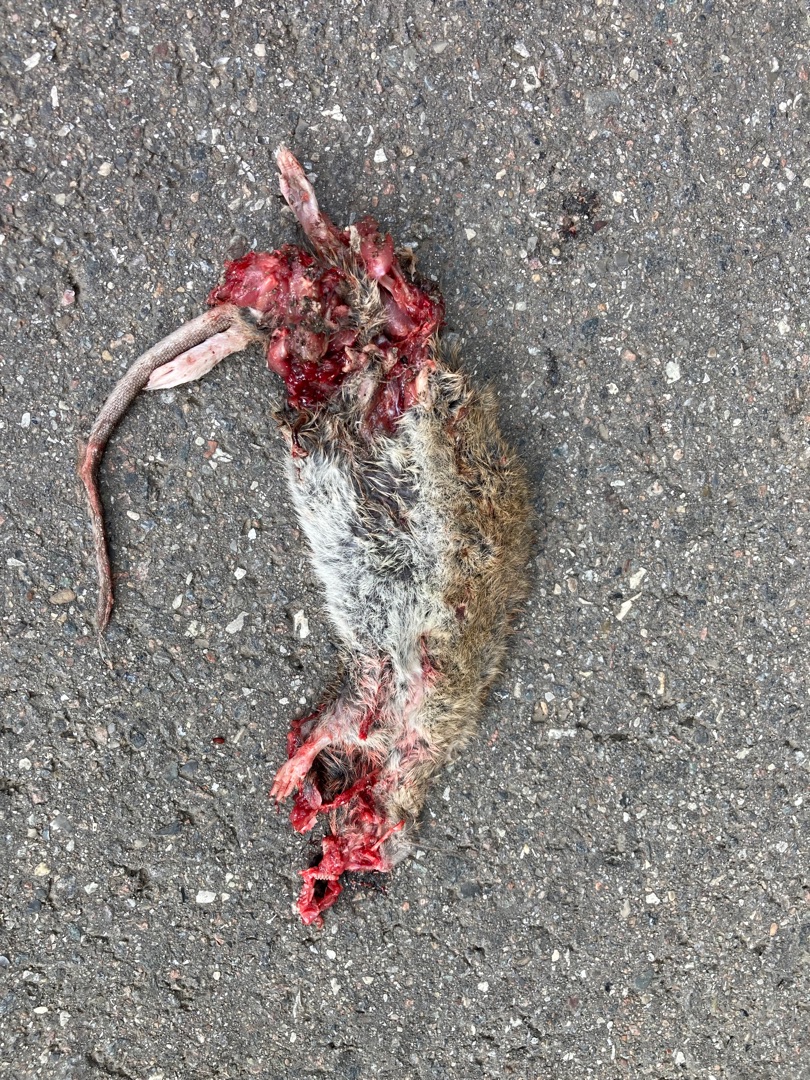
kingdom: Animalia
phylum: Chordata
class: Mammalia
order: Rodentia
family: Muridae
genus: Rattus
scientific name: Rattus norvegicus
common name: Brun rotte
